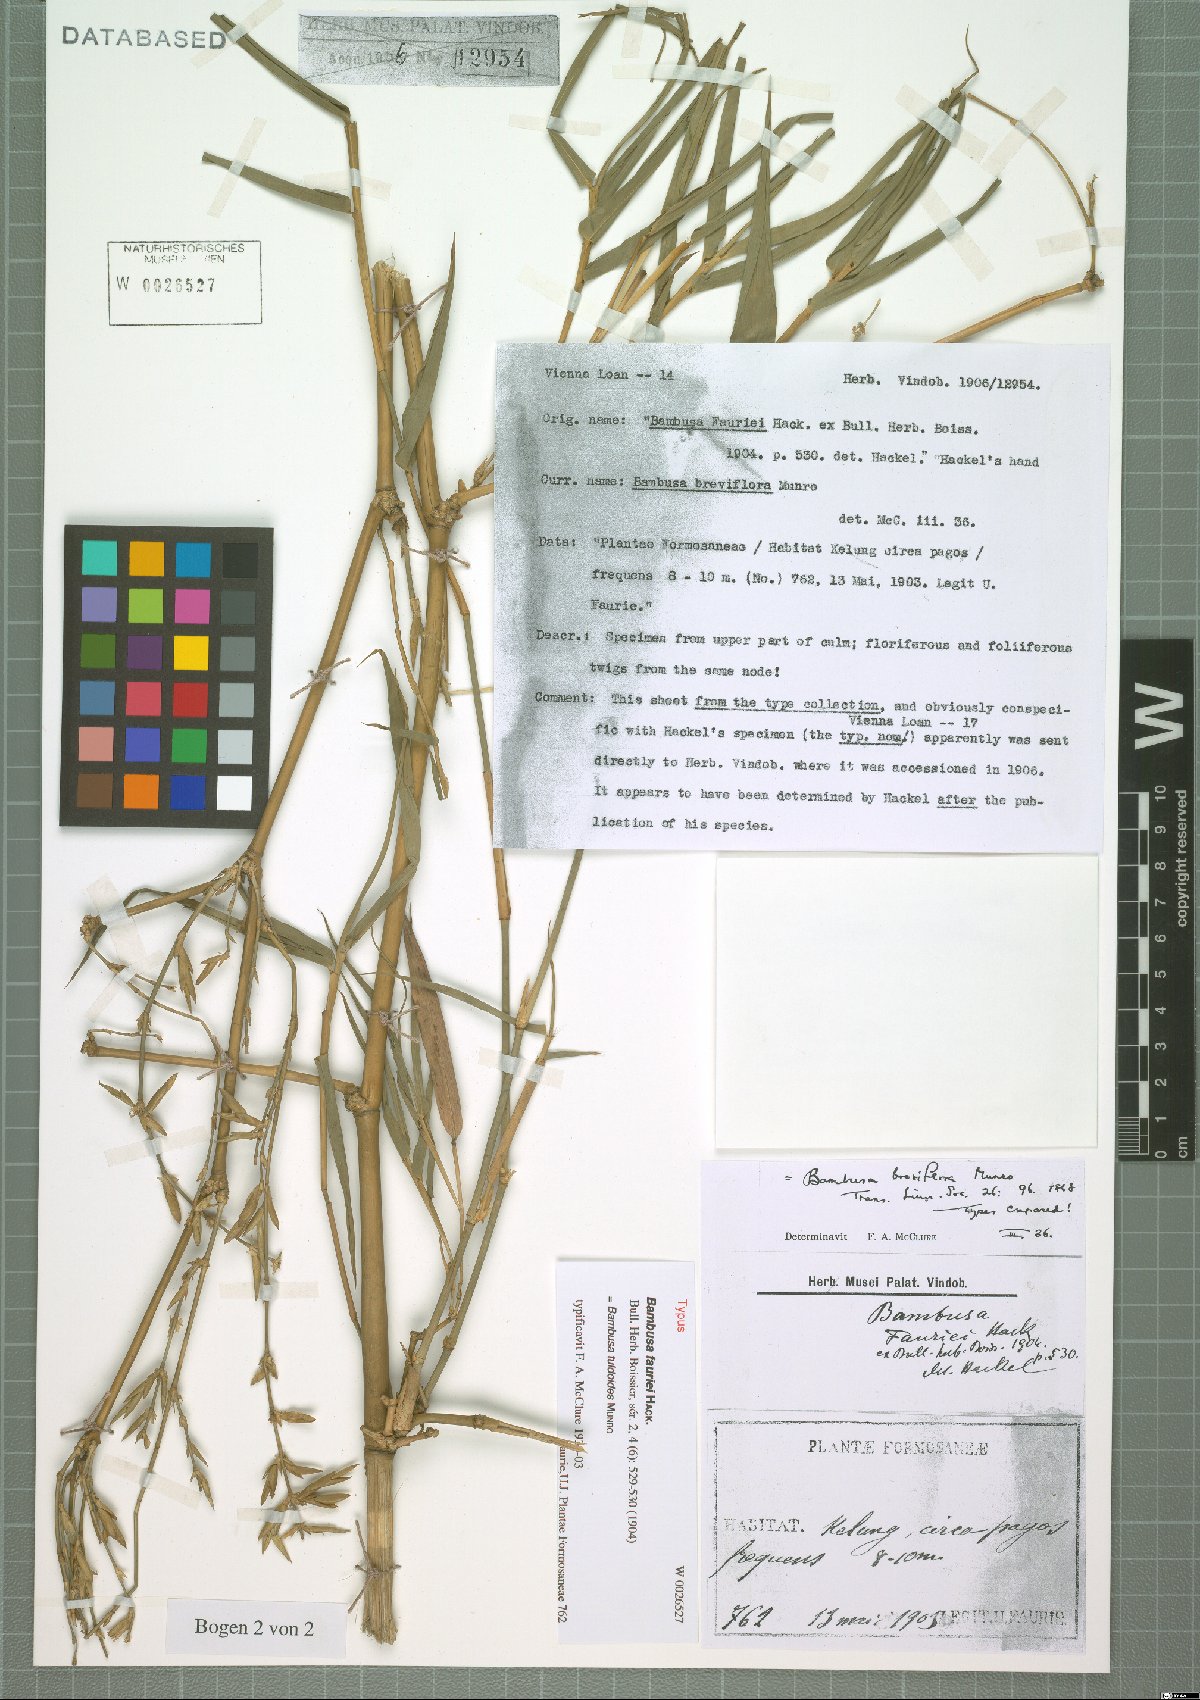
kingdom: Plantae
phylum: Tracheophyta
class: Liliopsida
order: Poales
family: Poaceae
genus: Bambusa
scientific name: Bambusa tuldoides
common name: Verdant bamboo
